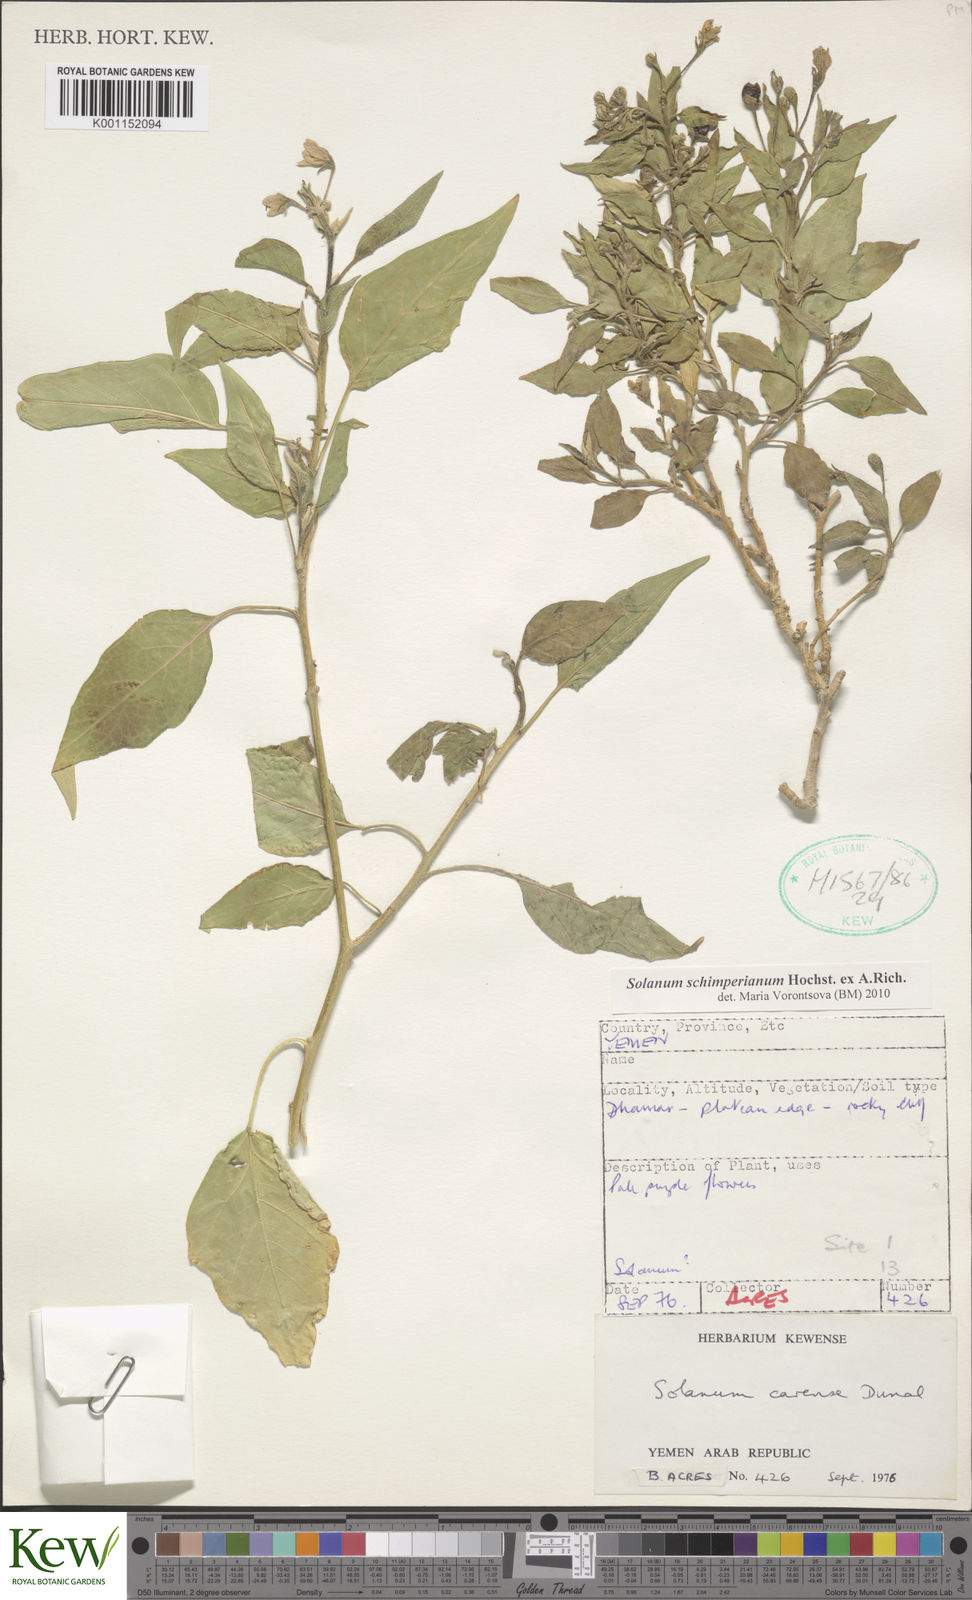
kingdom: Plantae
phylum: Tracheophyta
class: Magnoliopsida
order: Solanales
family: Solanaceae
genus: Solanum
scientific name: Solanum schimperianum
